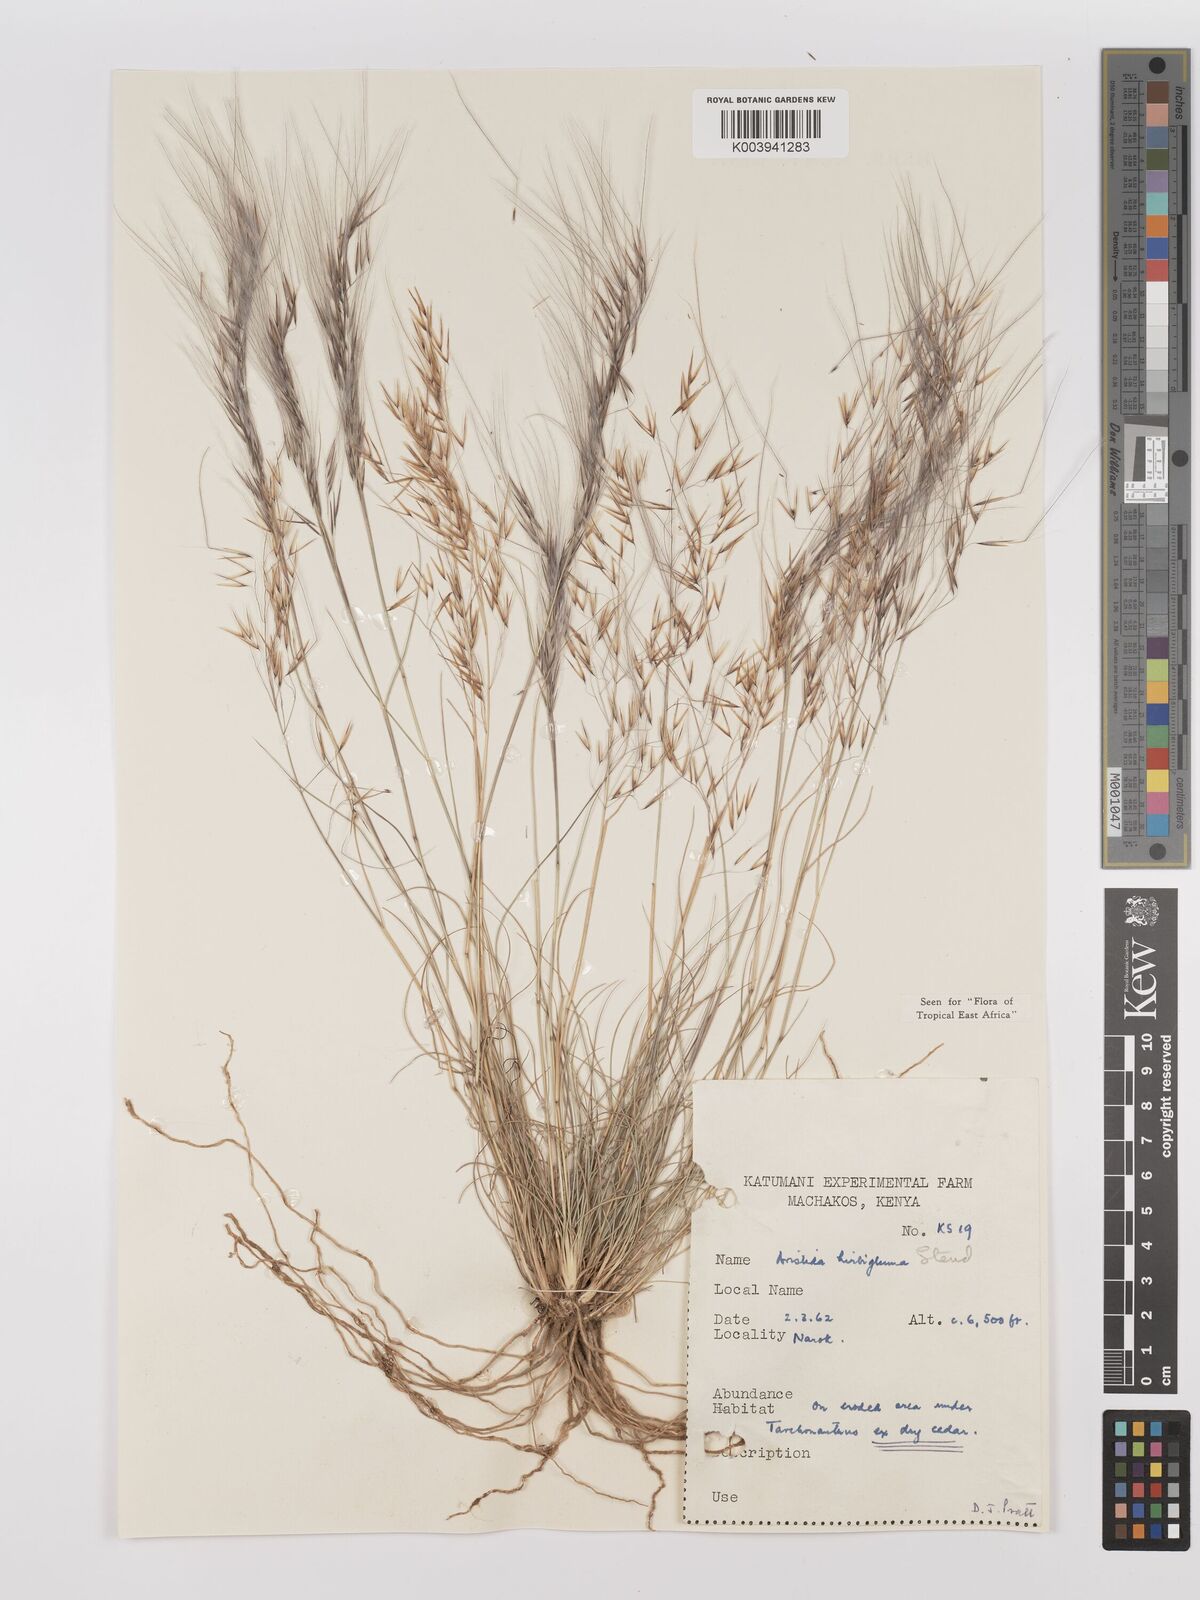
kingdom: Plantae
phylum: Tracheophyta
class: Liliopsida
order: Poales
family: Poaceae
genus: Stipagrostis
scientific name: Stipagrostis hirtigluma
